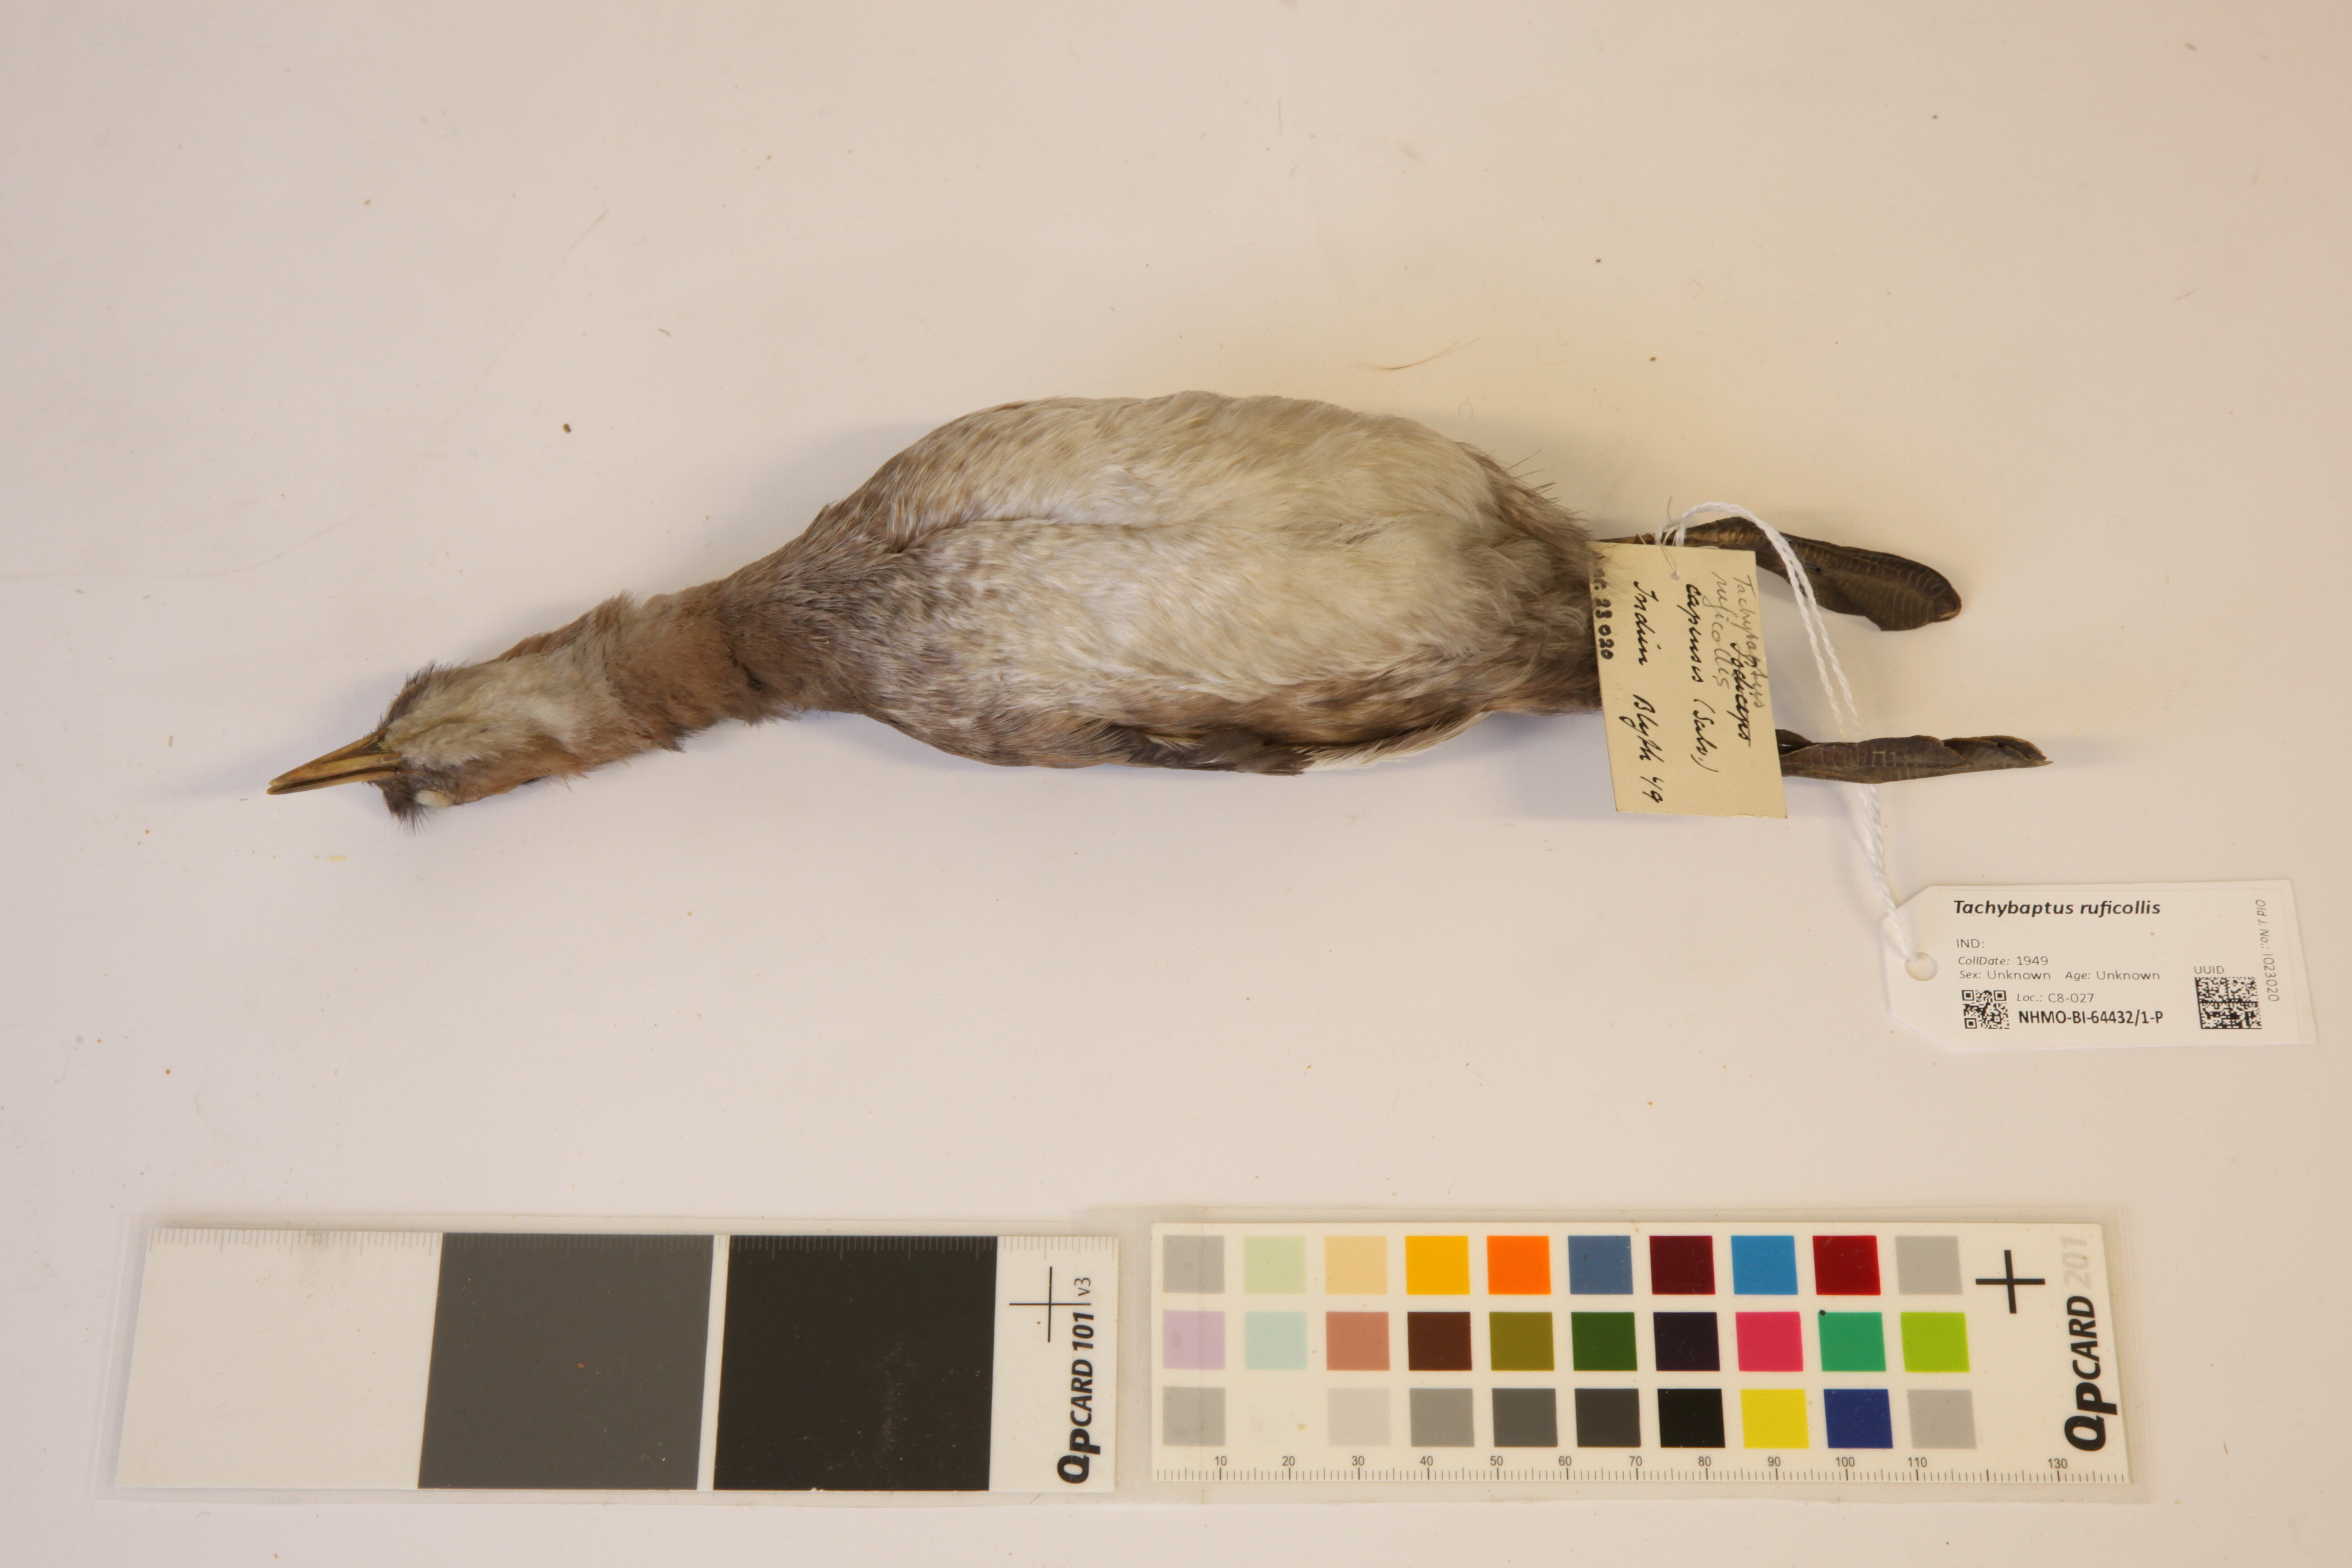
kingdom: Animalia
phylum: Chordata
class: Aves
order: Podicipediformes
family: Podicipedidae
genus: Tachybaptus
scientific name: Tachybaptus ruficollis
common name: Little grebe
